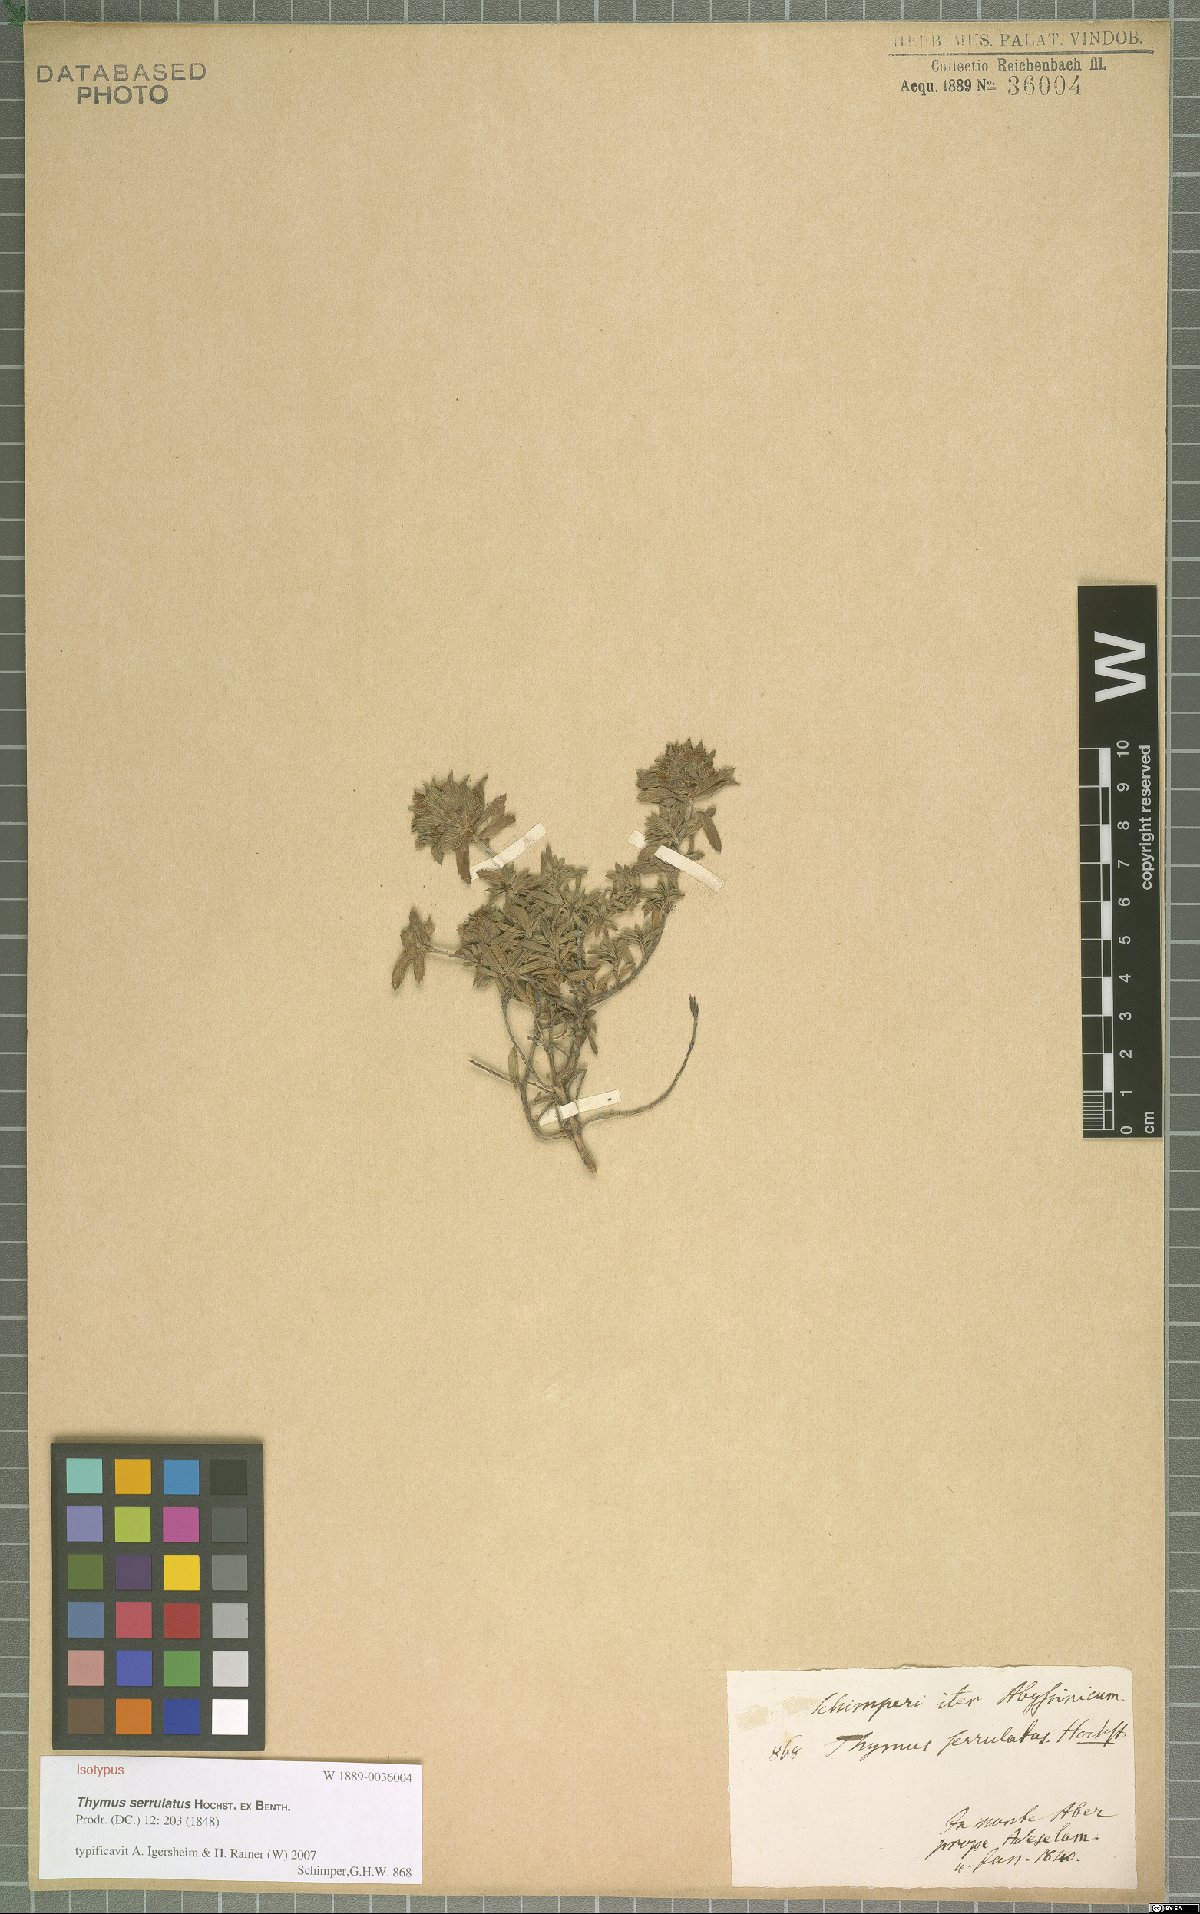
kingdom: Plantae
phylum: Tracheophyta
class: Magnoliopsida
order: Lamiales
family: Lamiaceae
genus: Thymus
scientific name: Thymus serrulatus
